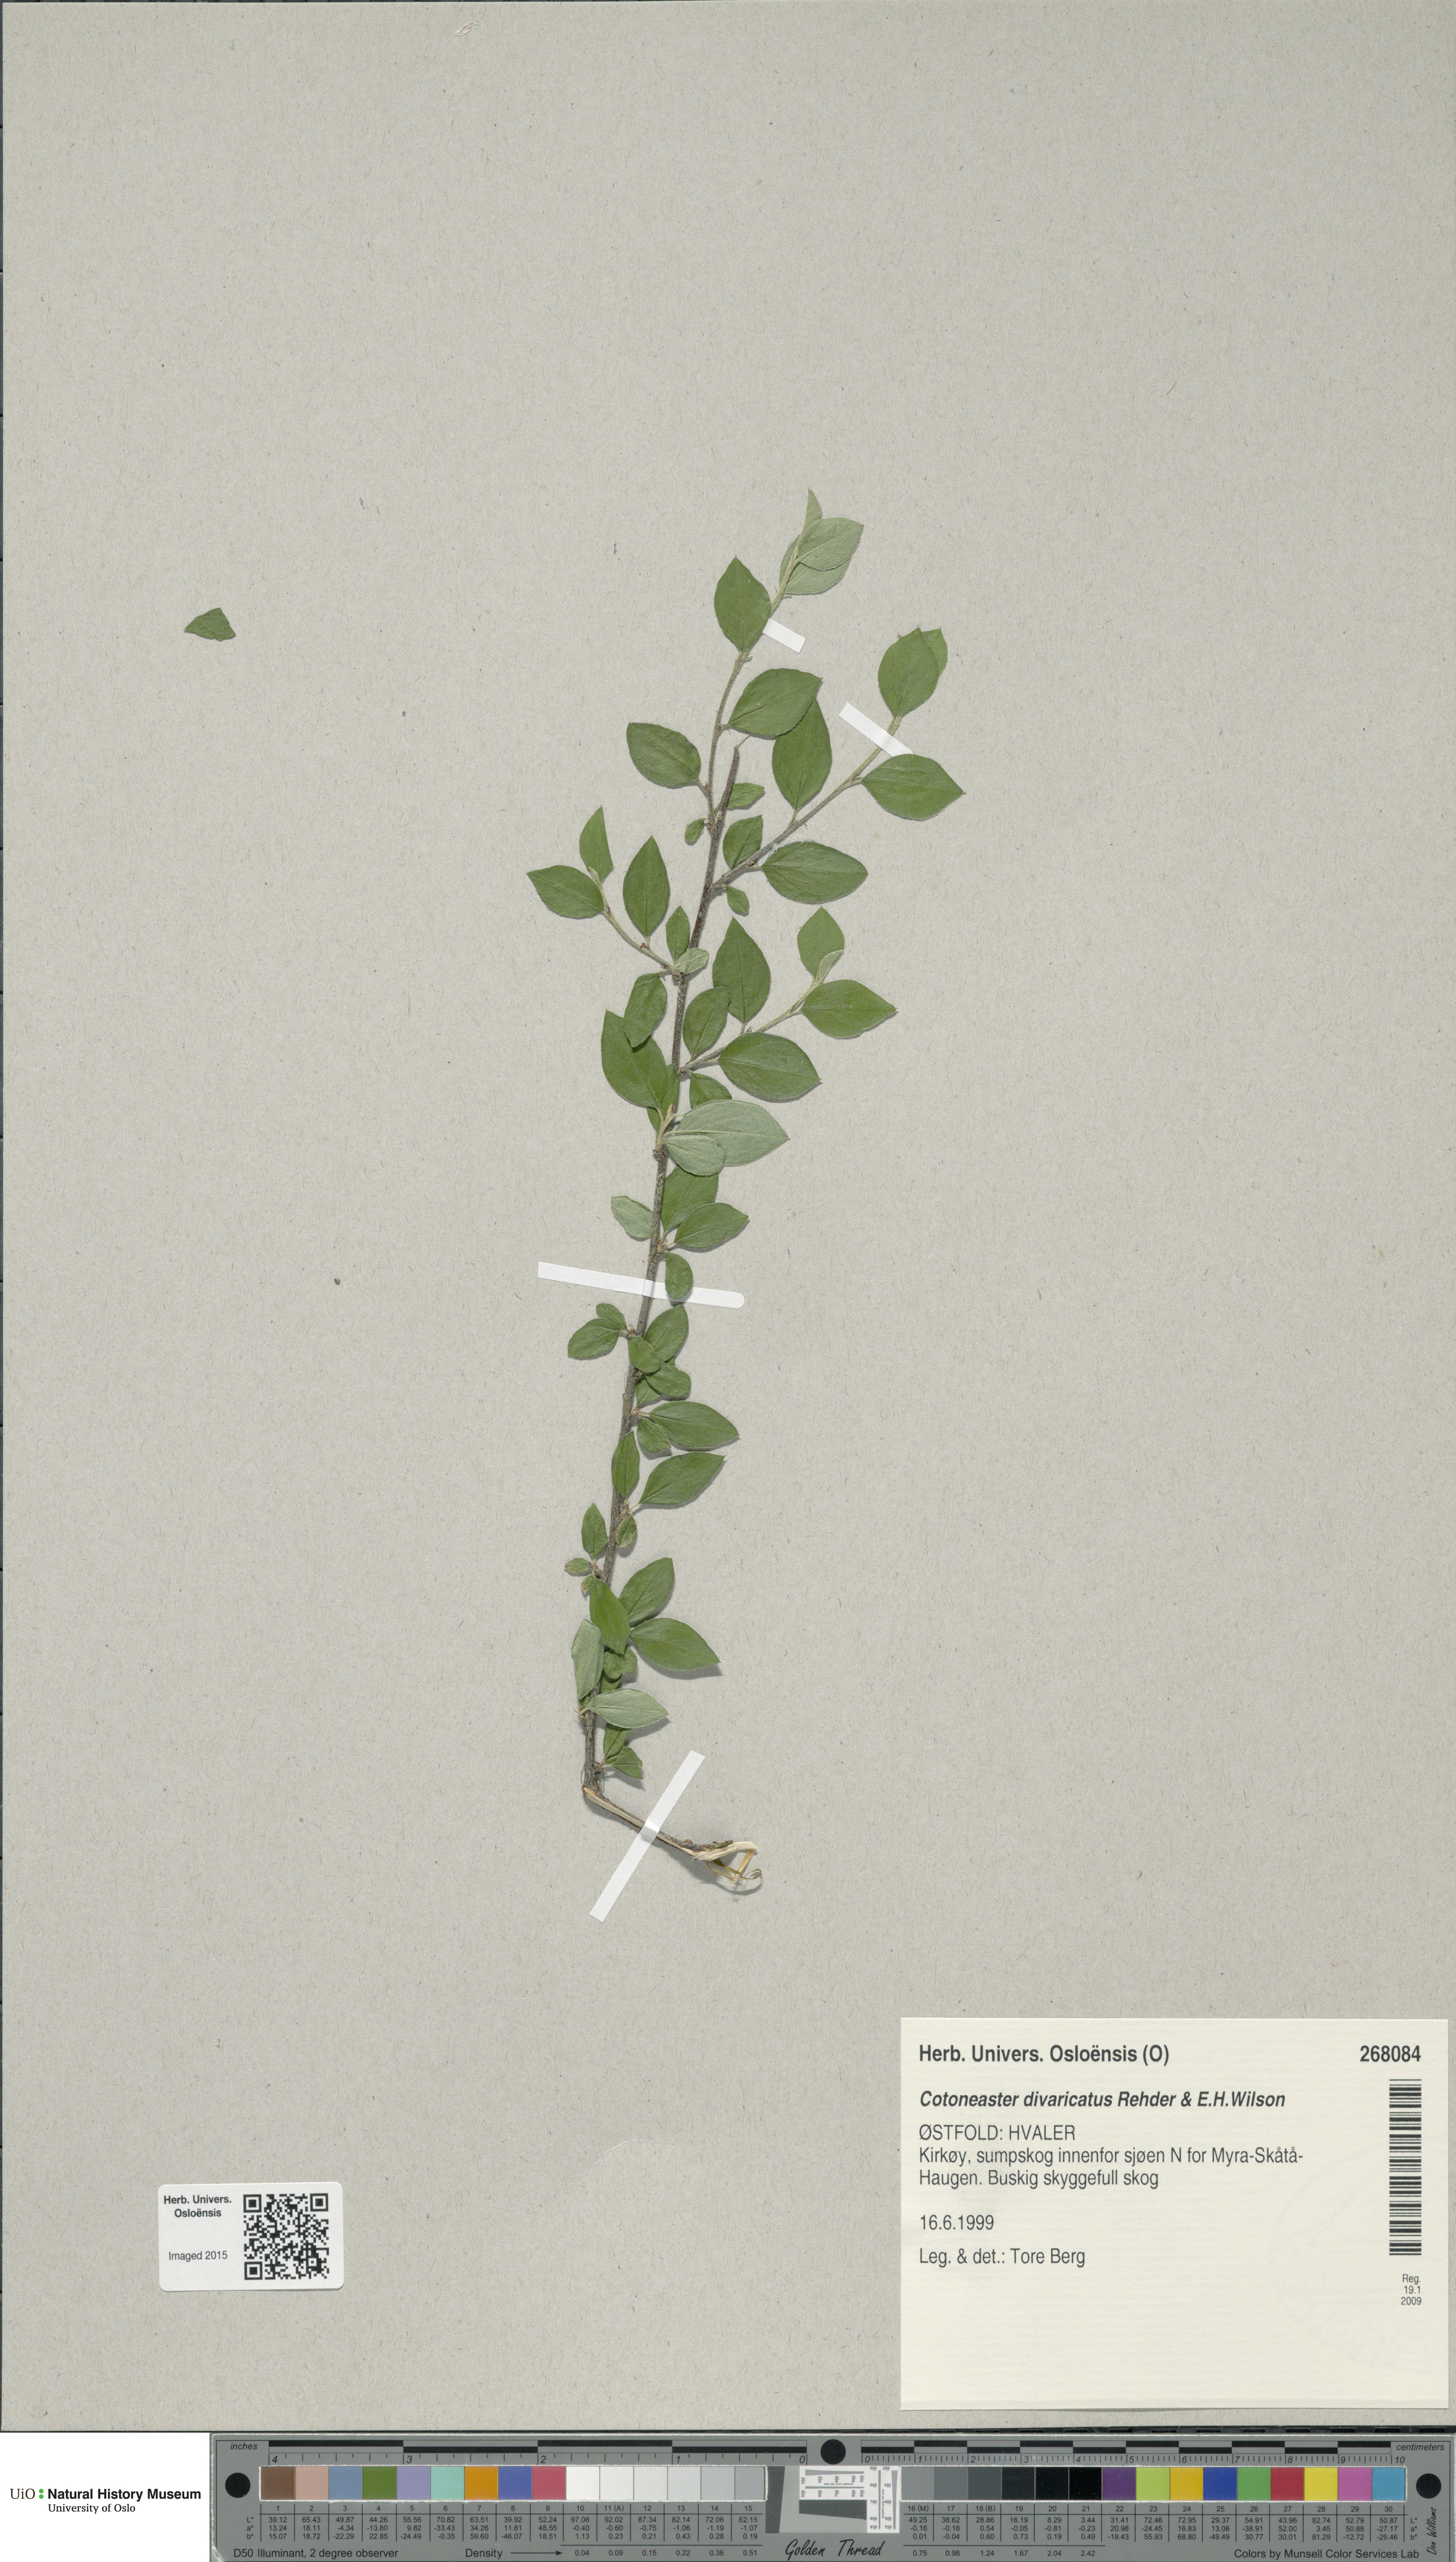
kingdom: Plantae
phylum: Tracheophyta
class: Magnoliopsida
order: Rosales
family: Rosaceae
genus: Cotoneaster
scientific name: Cotoneaster divaricatus
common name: Spreading cotoneaster
